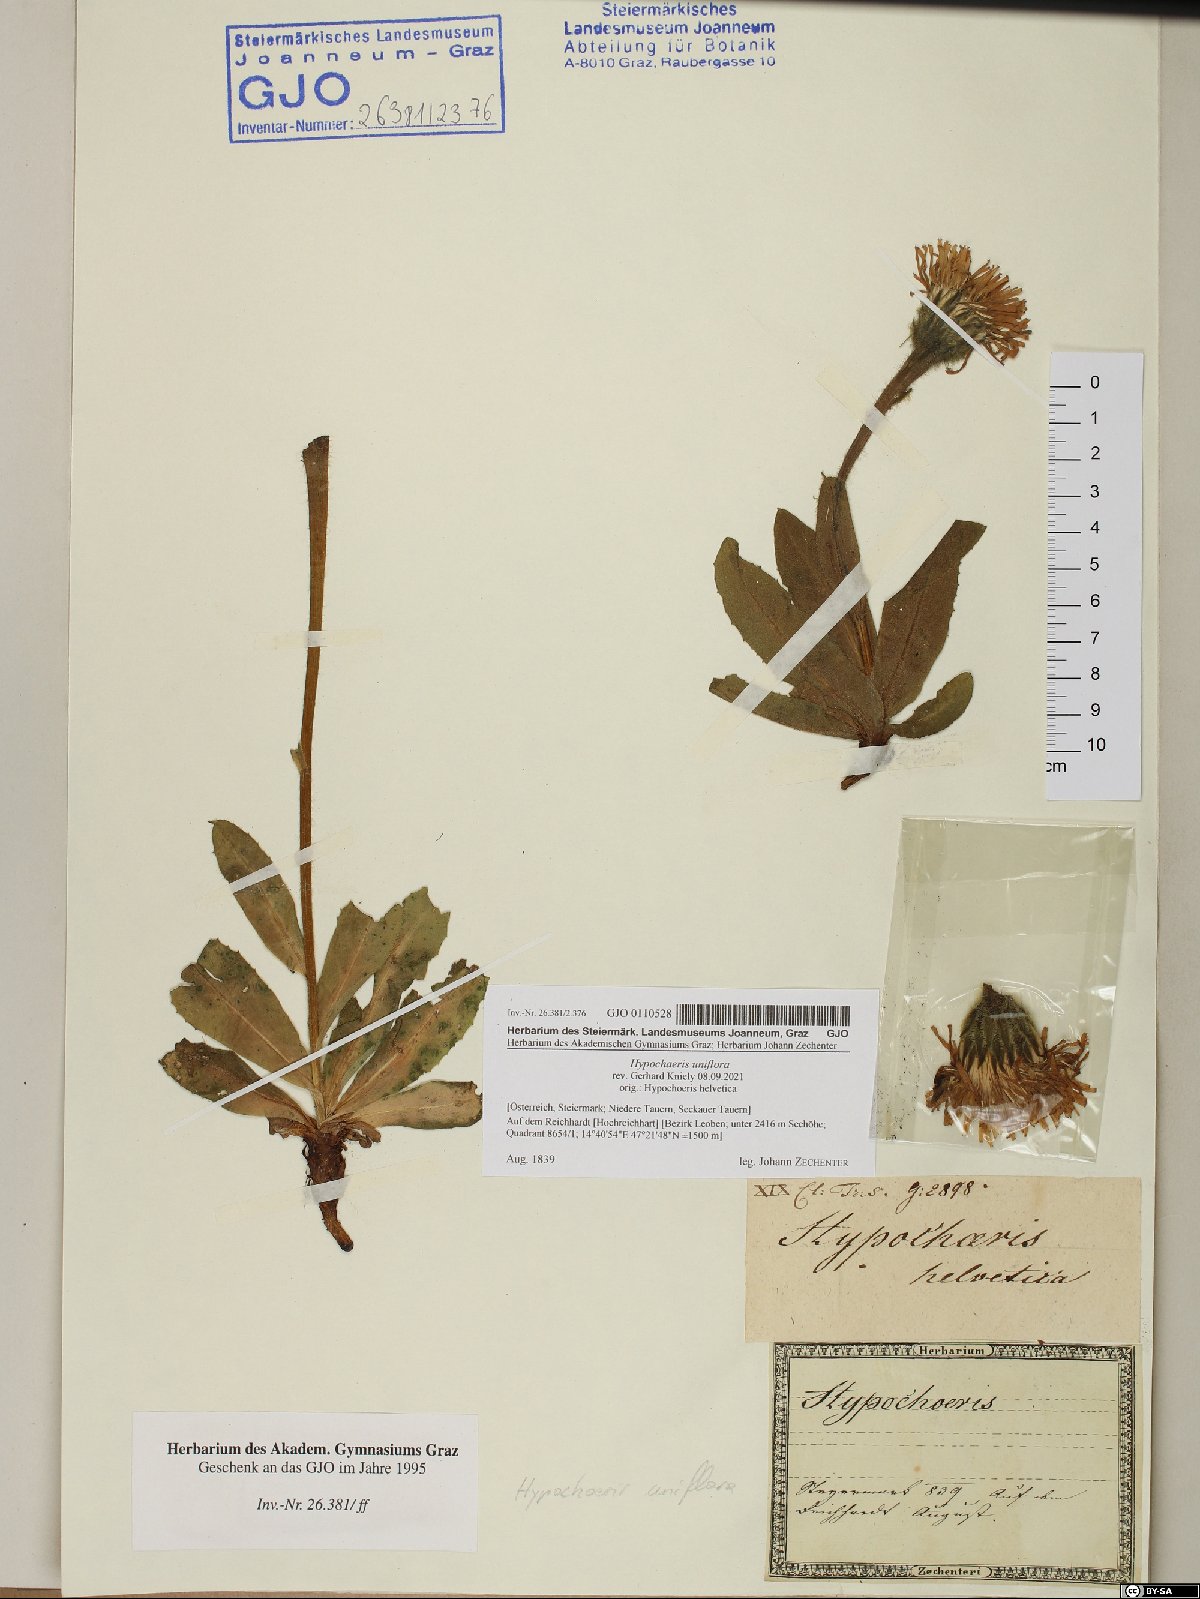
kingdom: Plantae
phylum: Tracheophyta
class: Magnoliopsida
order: Asterales
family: Asteraceae
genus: Trommsdorffia
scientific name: Trommsdorffia uniflora
